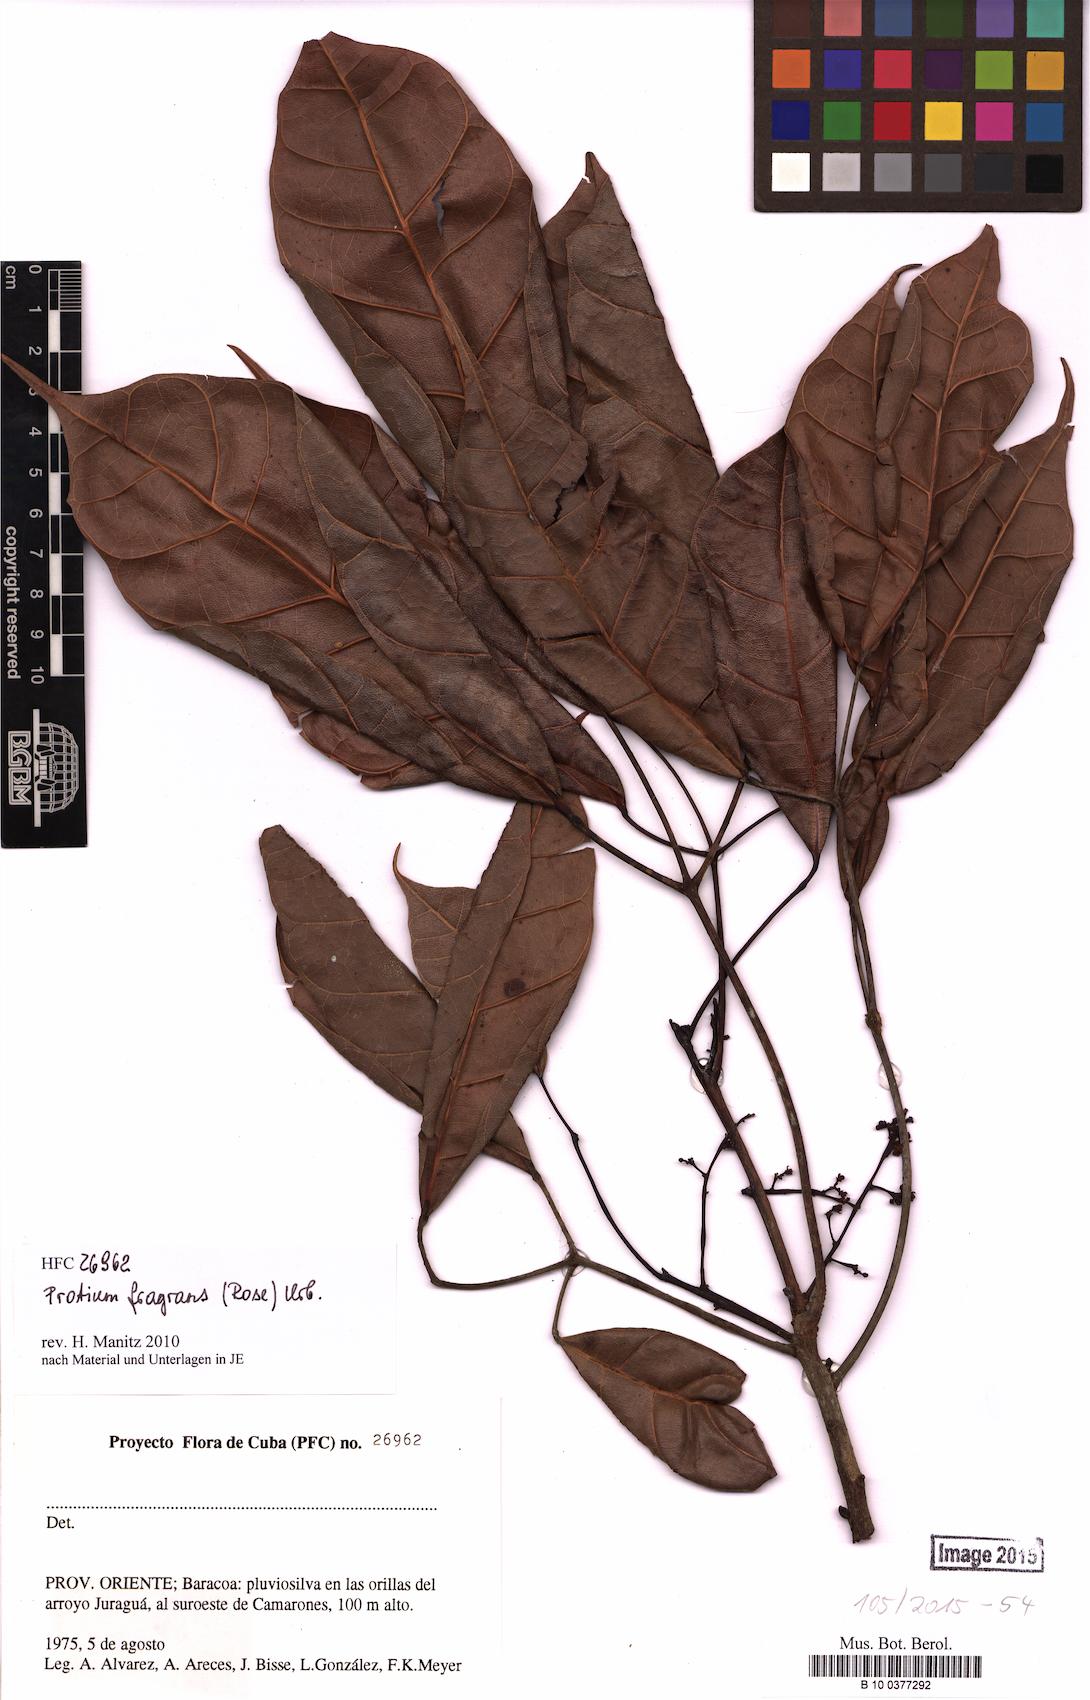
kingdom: Plantae
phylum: Tracheophyta
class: Magnoliopsida
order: Sapindales
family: Burseraceae
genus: Protium
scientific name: Protium fragrans
